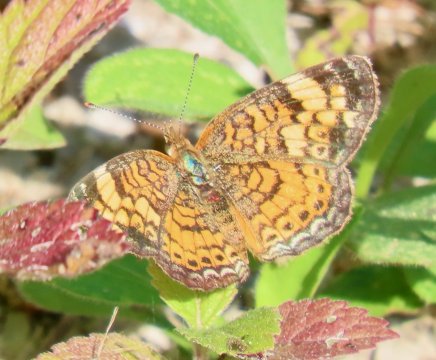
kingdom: Animalia
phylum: Arthropoda
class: Insecta
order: Lepidoptera
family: Nymphalidae
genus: Phyciodes
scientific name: Phyciodes tharos
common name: Pearl Crescent
